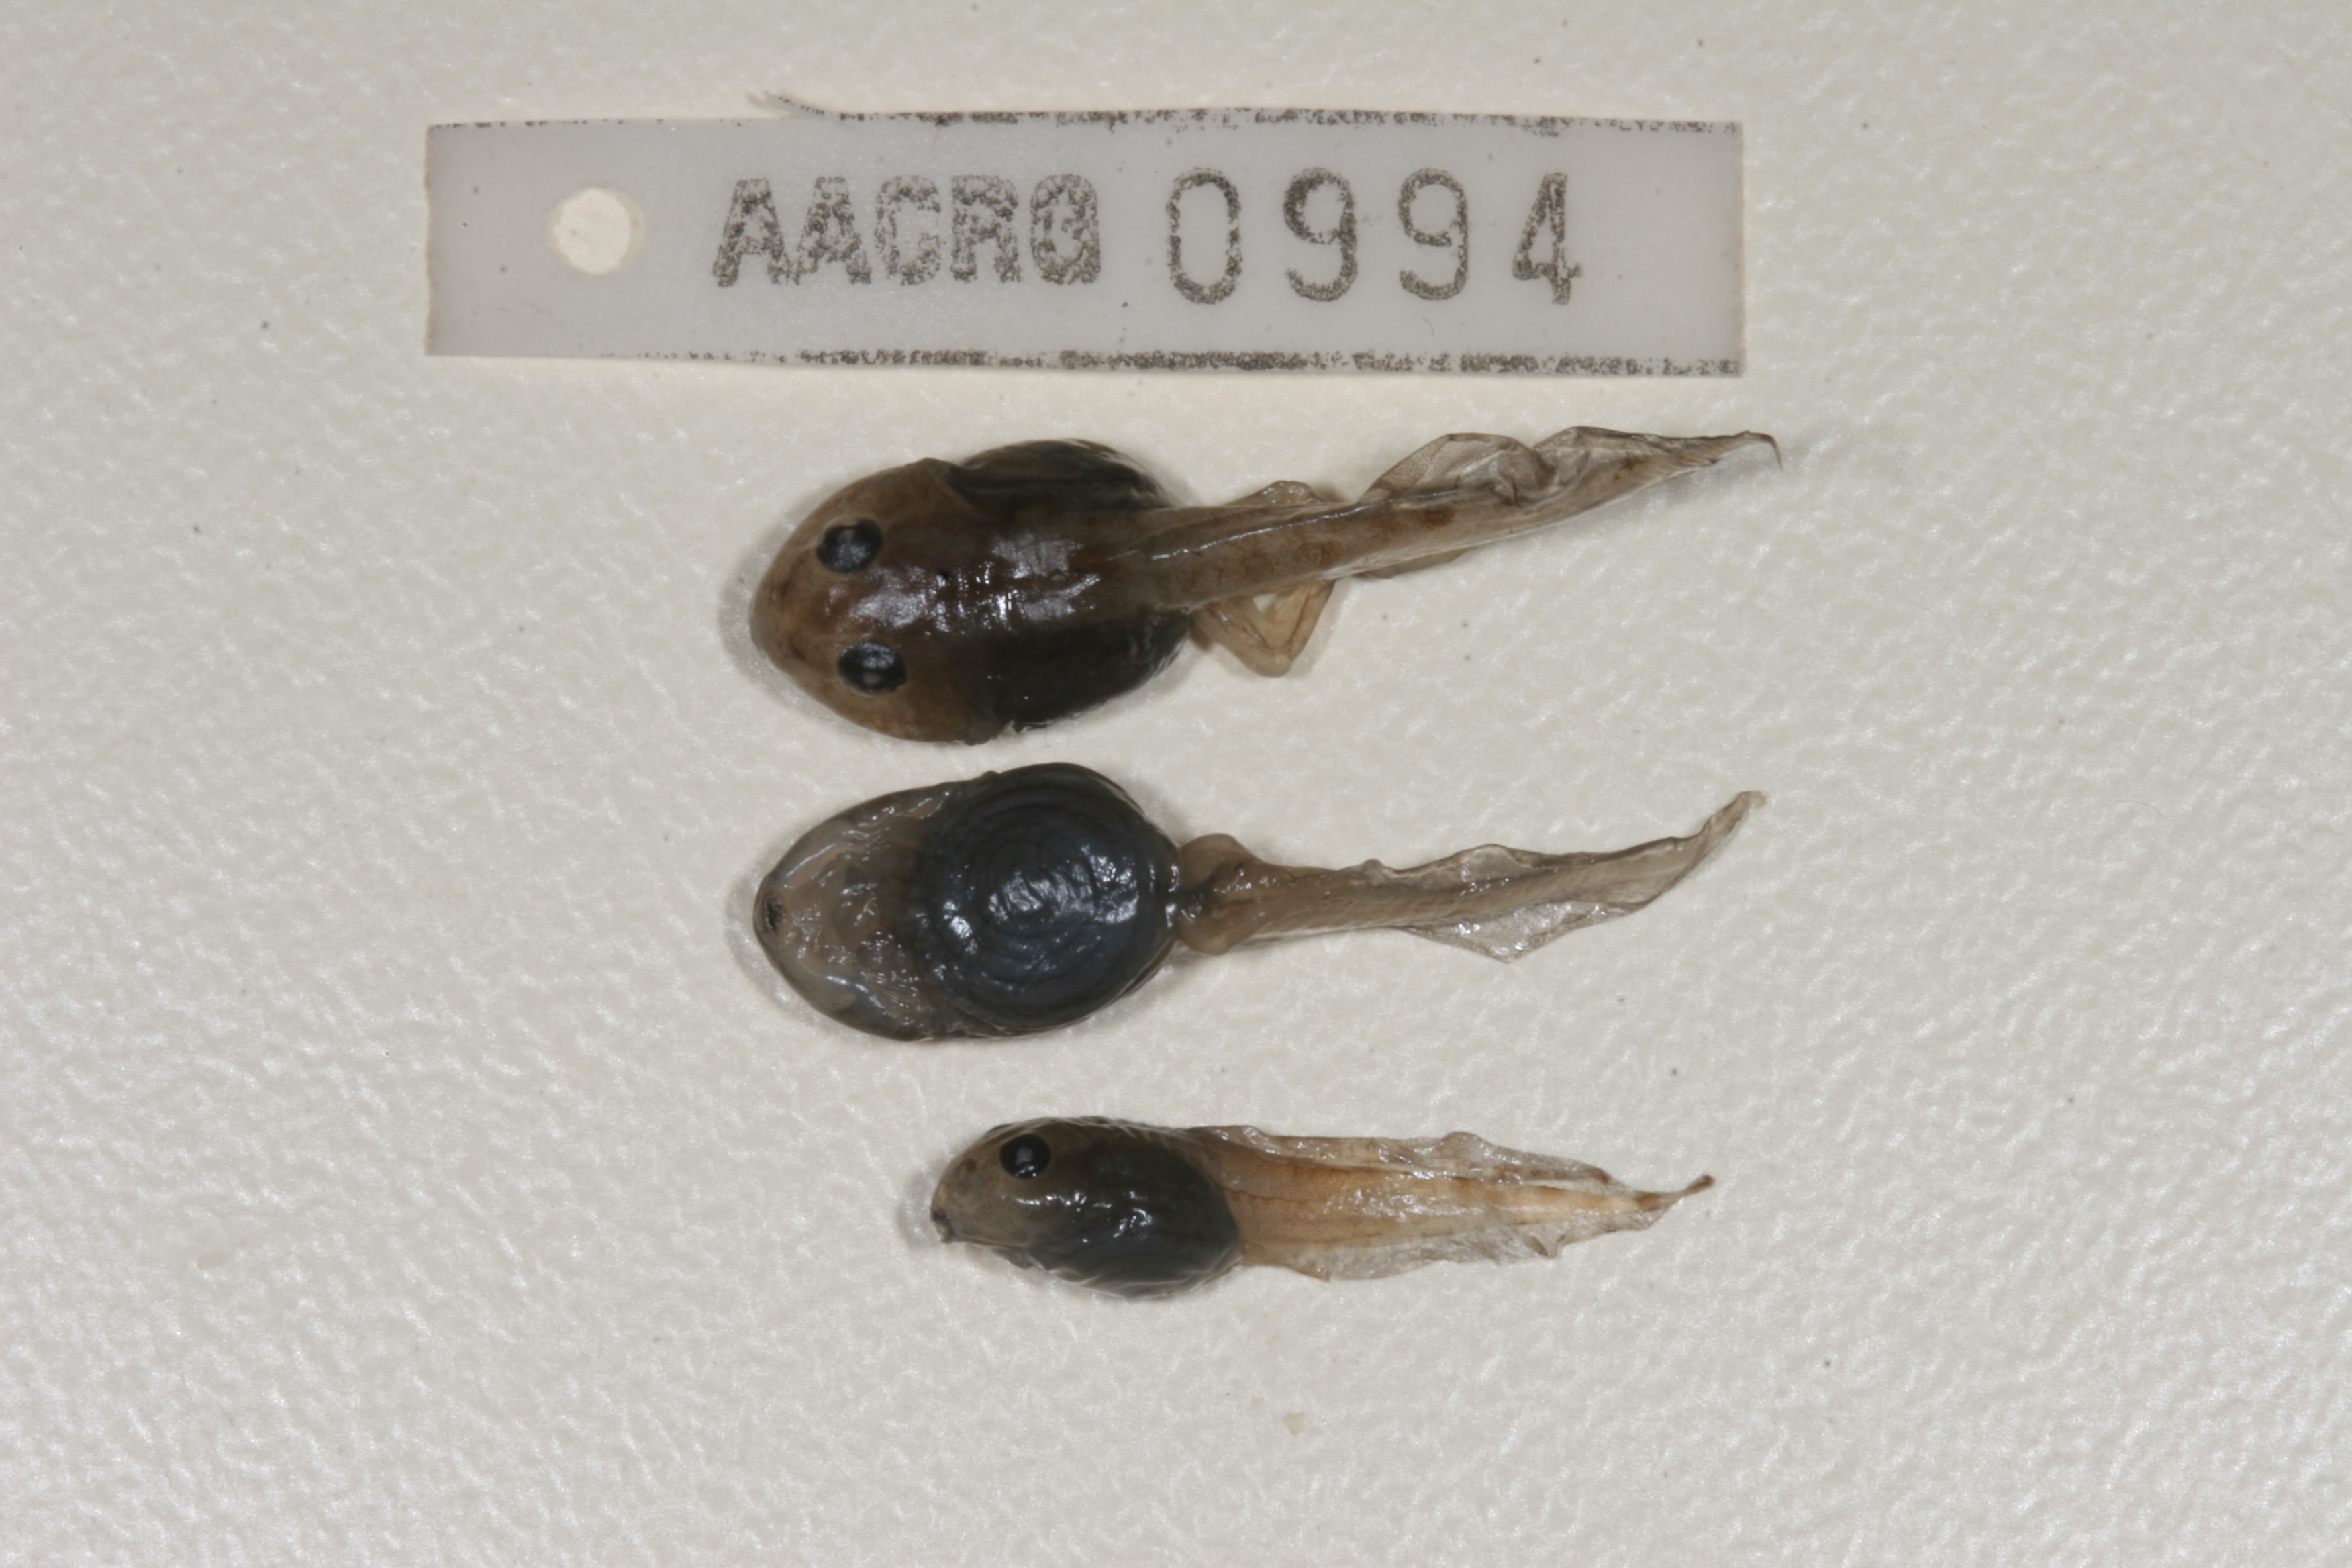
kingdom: Animalia
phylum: Chordata
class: Amphibia
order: Anura
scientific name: Anura
